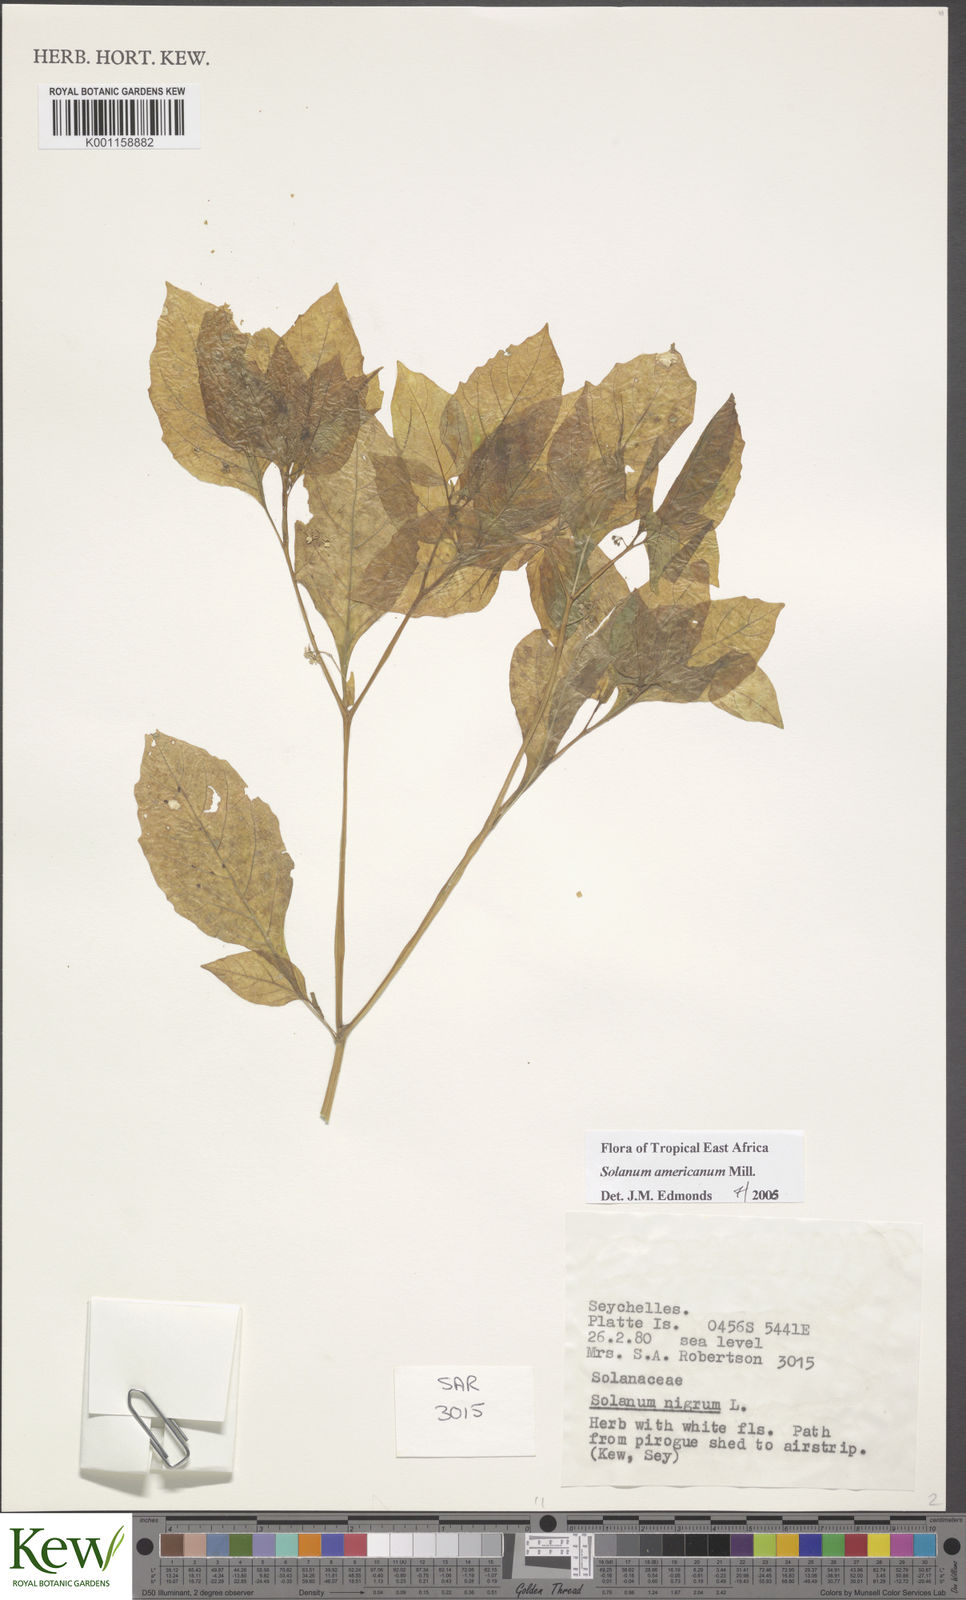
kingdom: Plantae
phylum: Tracheophyta
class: Magnoliopsida
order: Solanales
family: Solanaceae
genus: Solanum
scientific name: Solanum americanum
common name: American black nightshade
